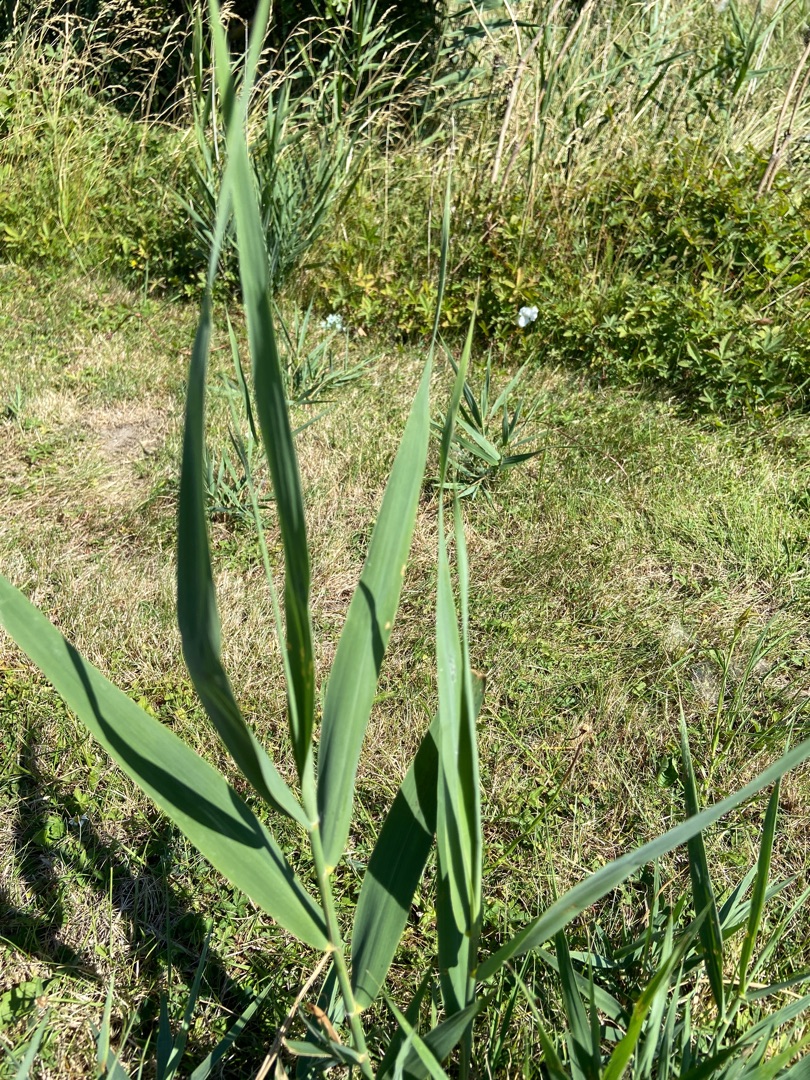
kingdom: Plantae
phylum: Tracheophyta
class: Liliopsida
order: Poales
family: Poaceae
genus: Phragmites
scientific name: Phragmites australis
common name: Tagrør
